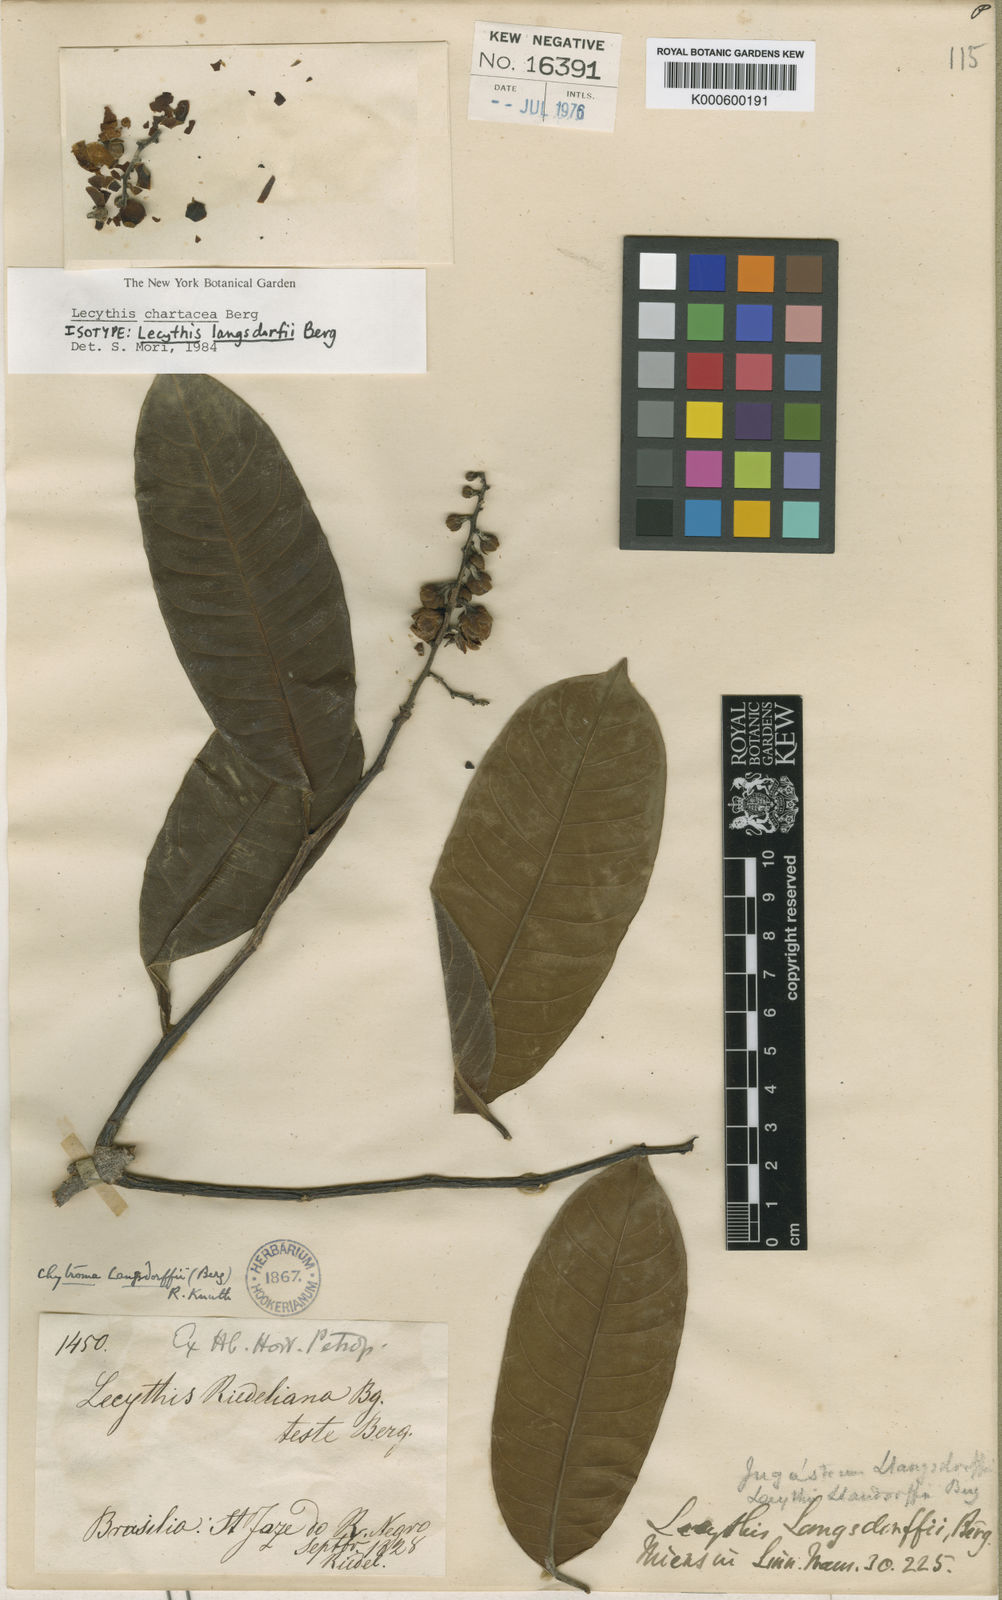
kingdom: Plantae
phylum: Tracheophyta
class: Magnoliopsida
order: Ericales
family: Lecythidaceae
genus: Lecythis
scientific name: Lecythis chartacea
